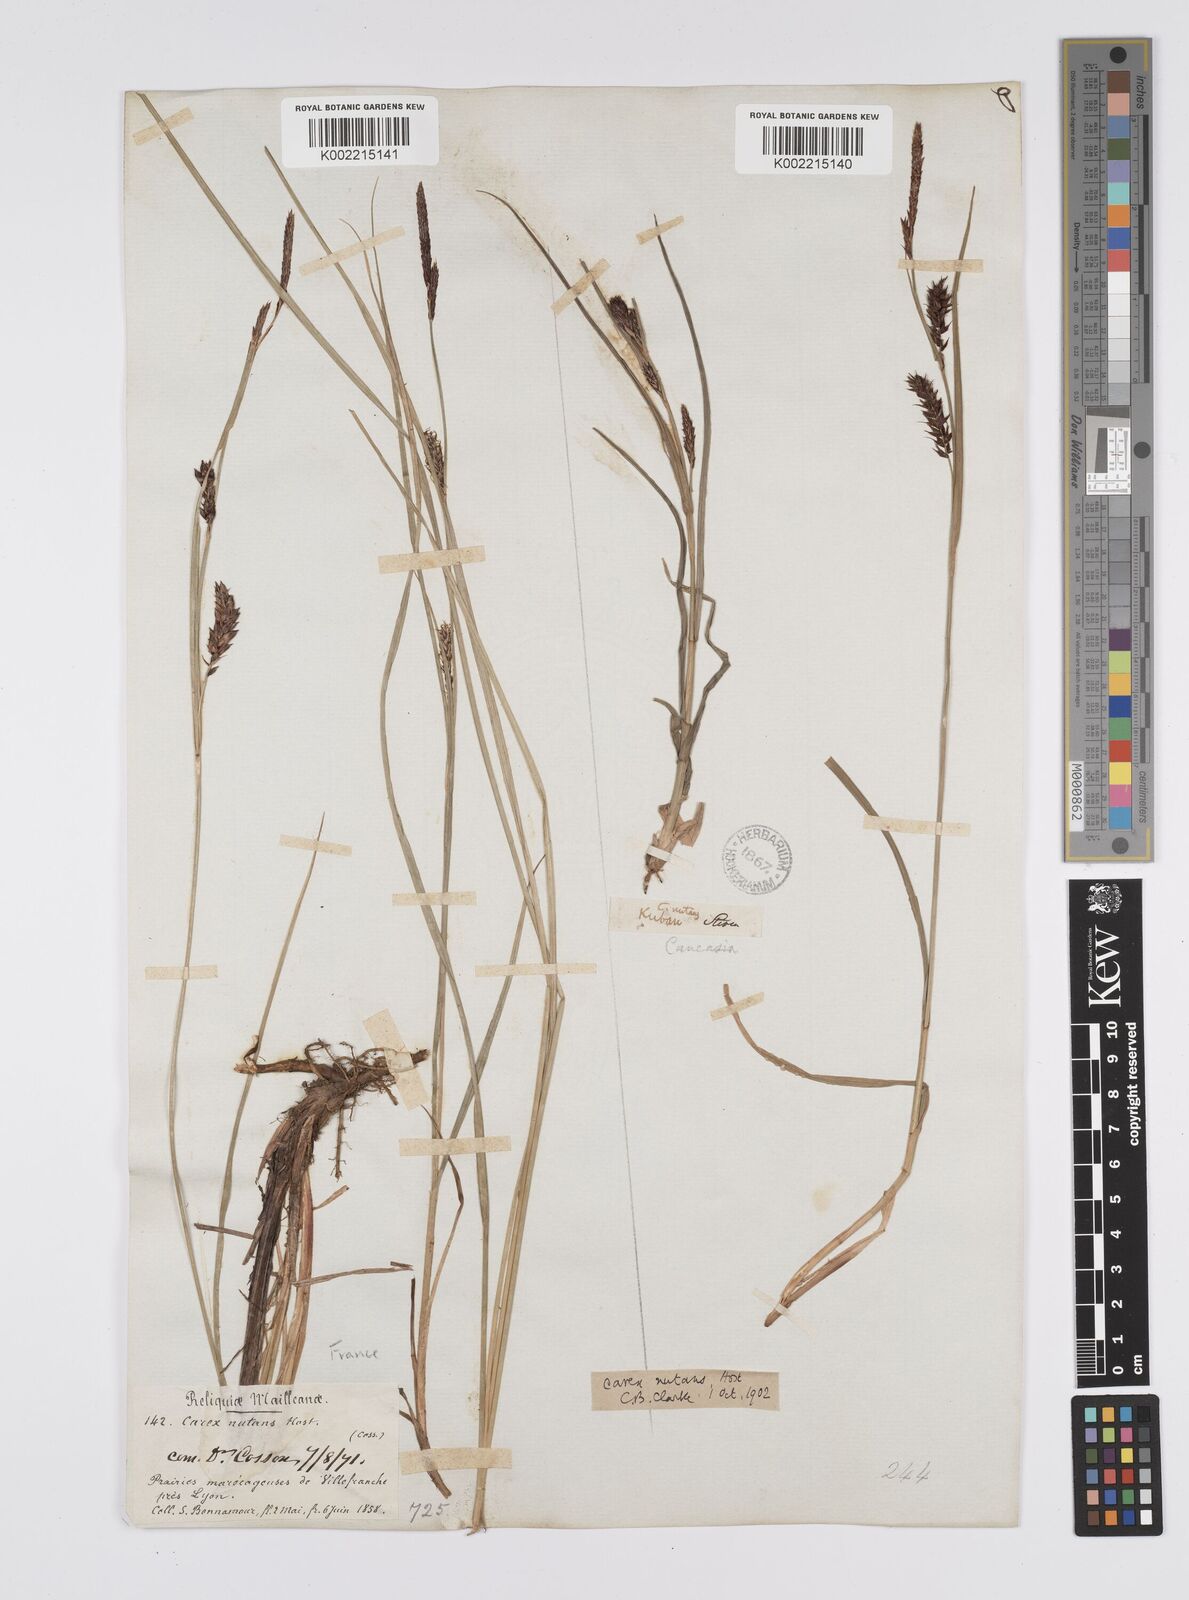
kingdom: Plantae
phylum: Tracheophyta
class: Liliopsida
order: Poales
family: Cyperaceae
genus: Carex
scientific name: Carex melanostachya
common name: Black-spiked sedge
